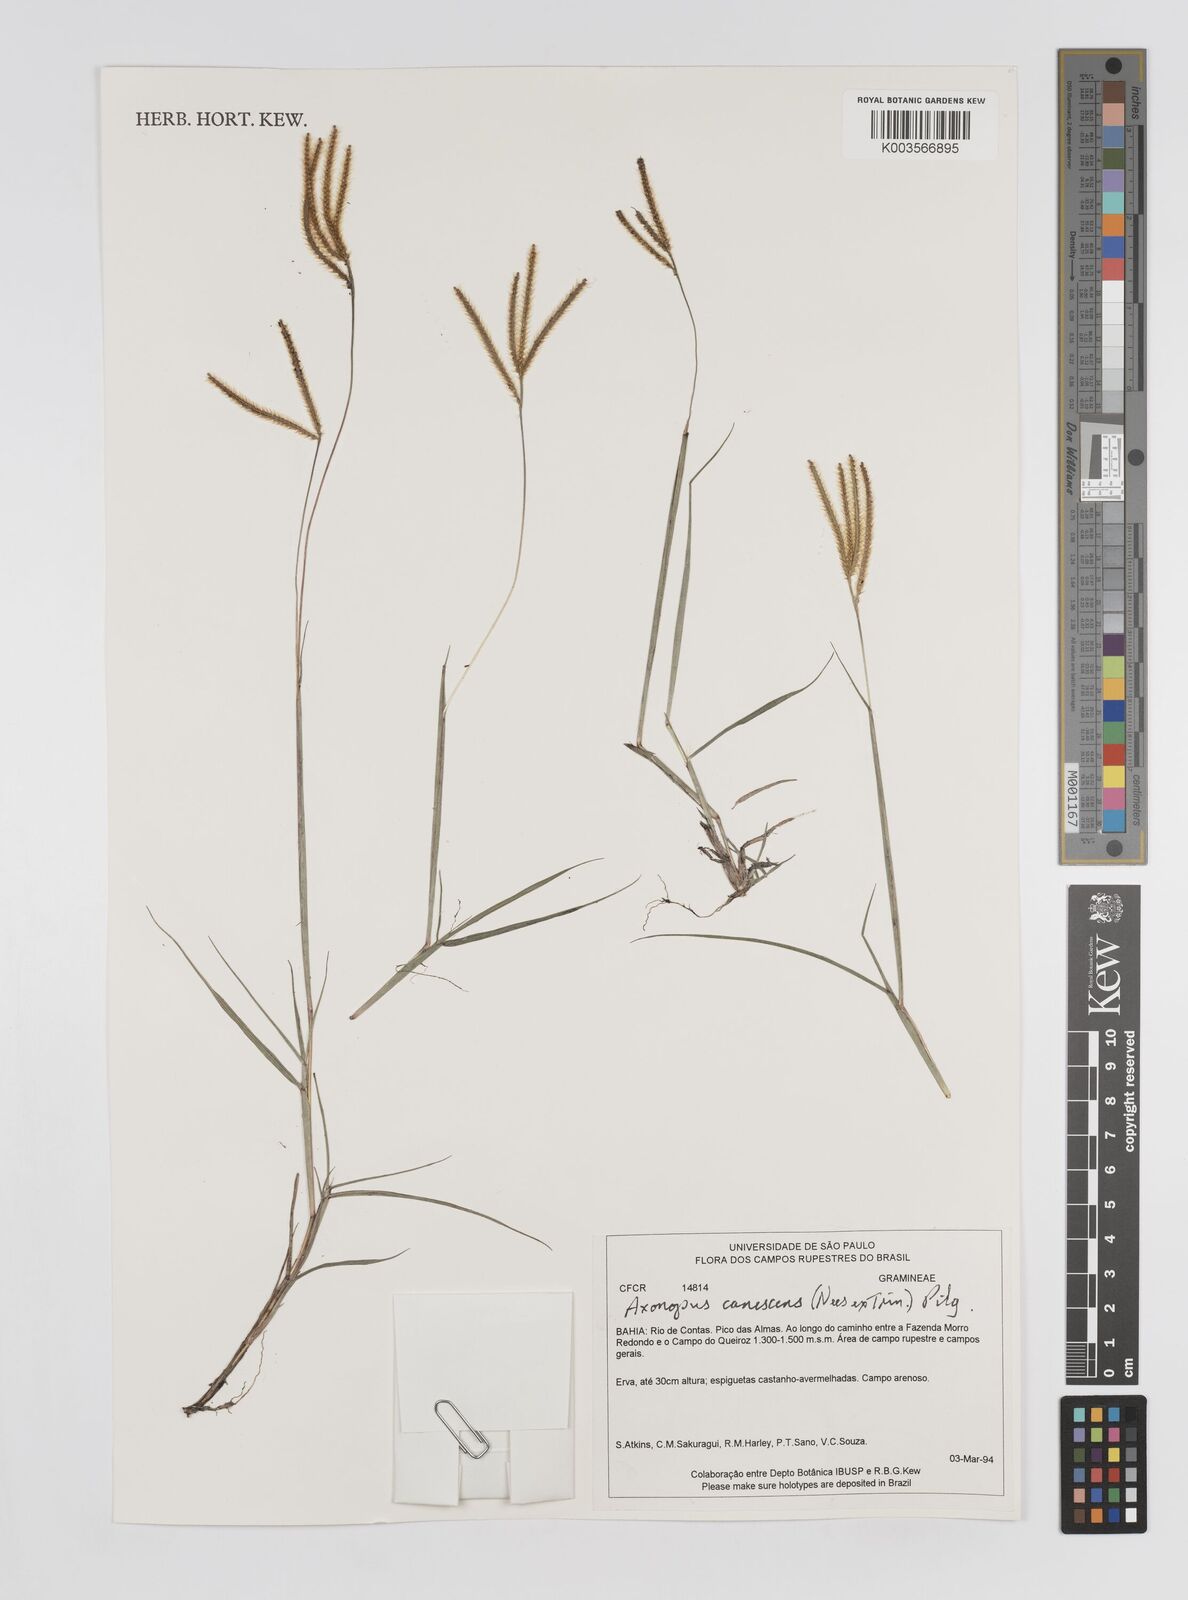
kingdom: Plantae
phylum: Tracheophyta
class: Liliopsida
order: Poales
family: Poaceae
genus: Axonopus
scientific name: Axonopus aureus
